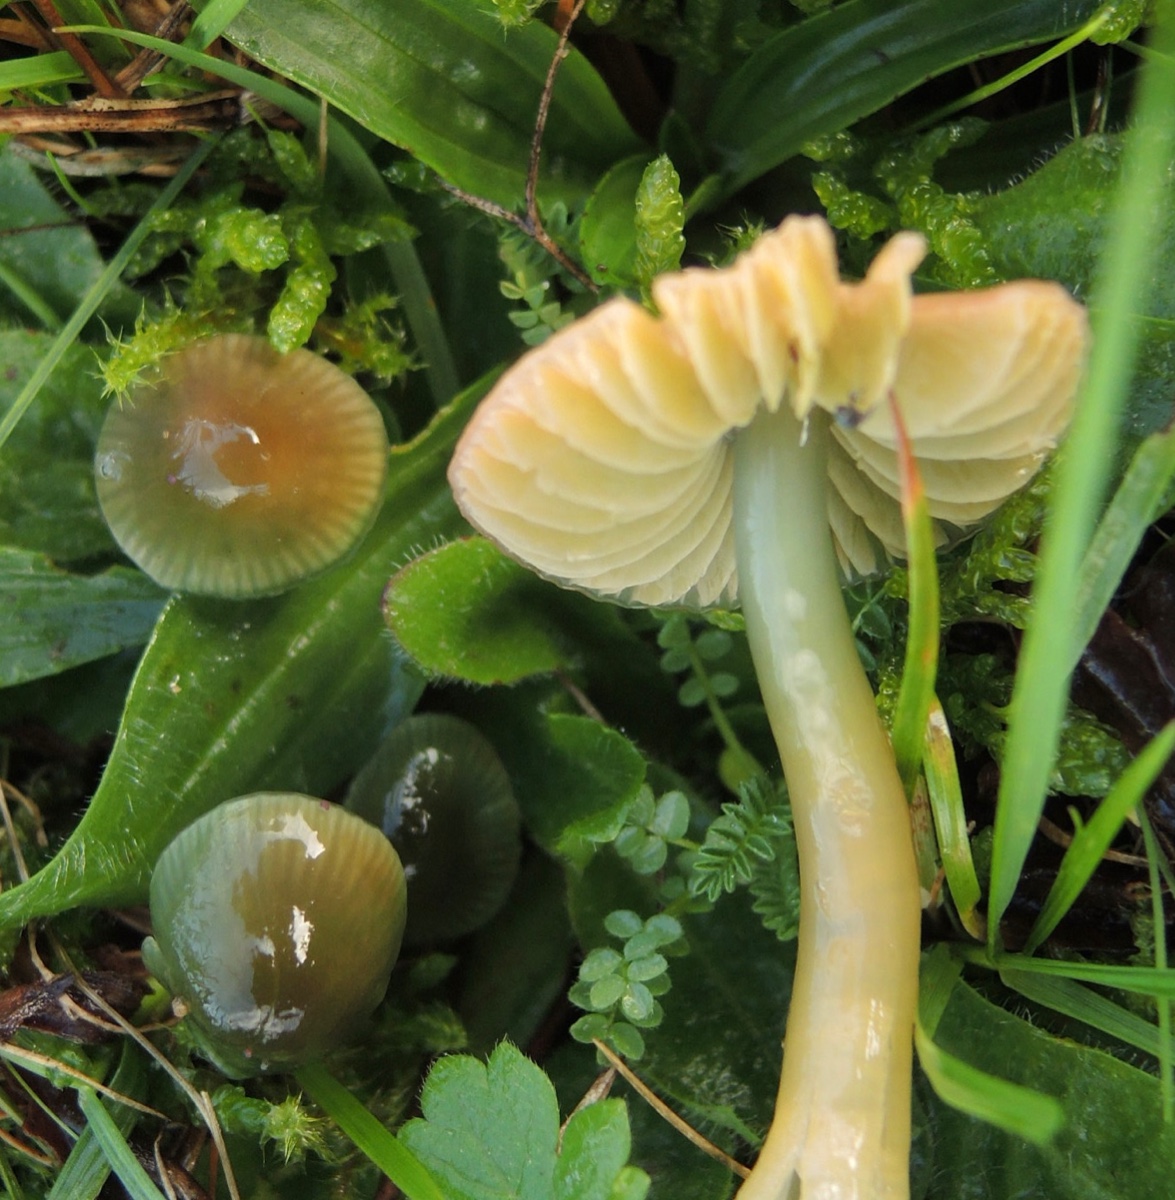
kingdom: Fungi
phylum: Basidiomycota
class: Agaricomycetes
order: Agaricales
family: Hygrophoraceae
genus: Gliophorus
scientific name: Gliophorus psittacinus
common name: papegøje-vokshat
